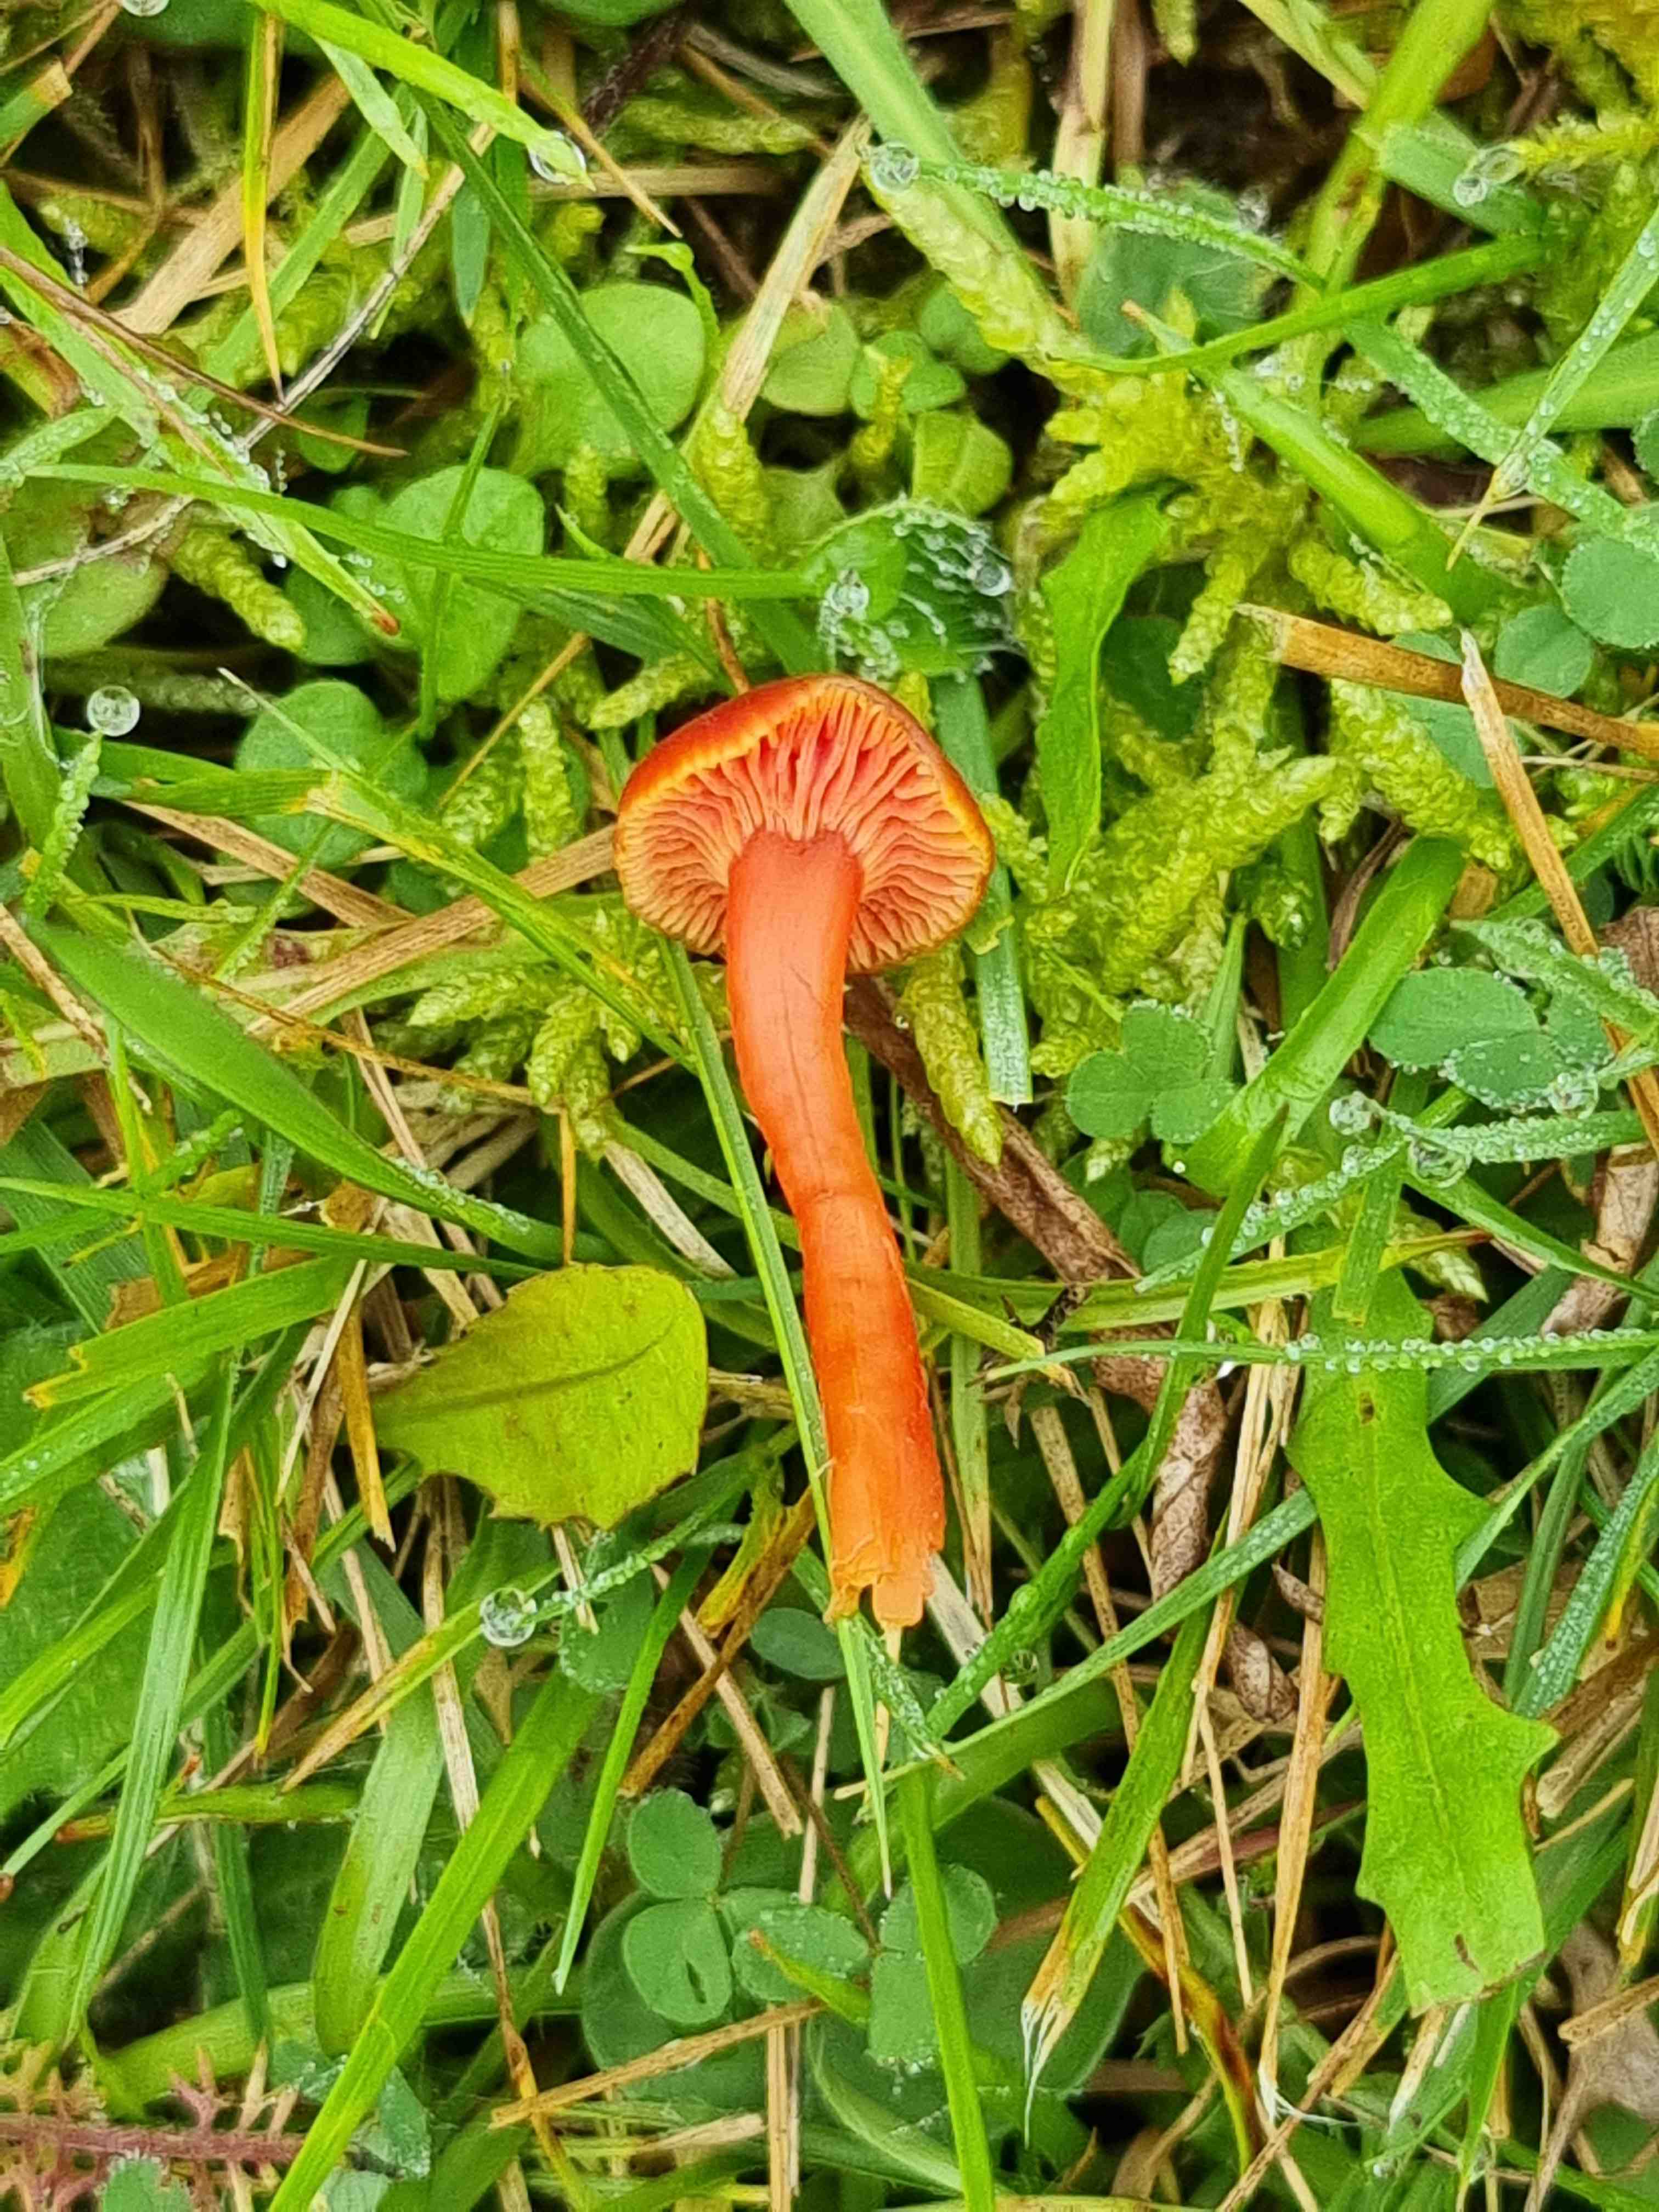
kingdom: Fungi
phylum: Basidiomycota
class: Agaricomycetes
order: Agaricales
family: Hygrophoraceae
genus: Hygrocybe
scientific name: Hygrocybe phaeococcinea
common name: sortdugget vokshat
